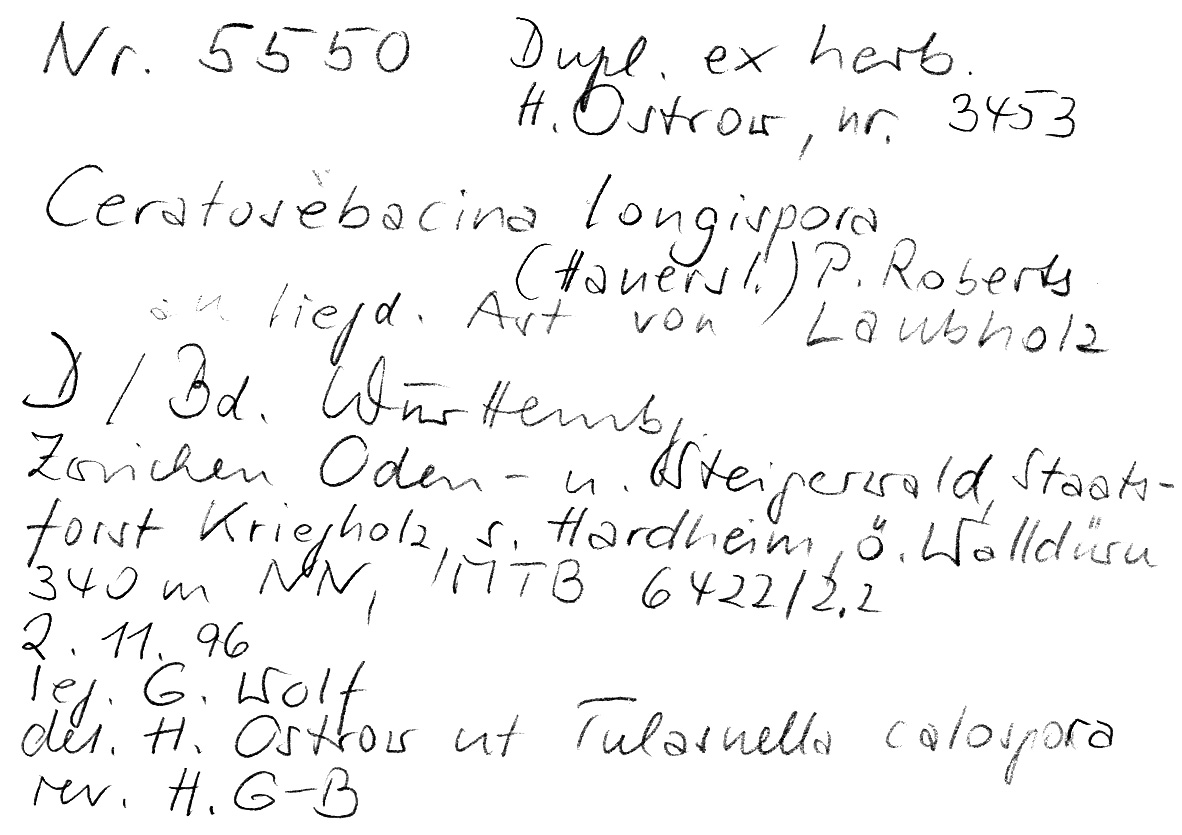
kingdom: Fungi
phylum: Basidiomycota
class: Agaricomycetes
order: Auriculariales
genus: Ceratosebacina
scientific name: Ceratosebacina longispora
